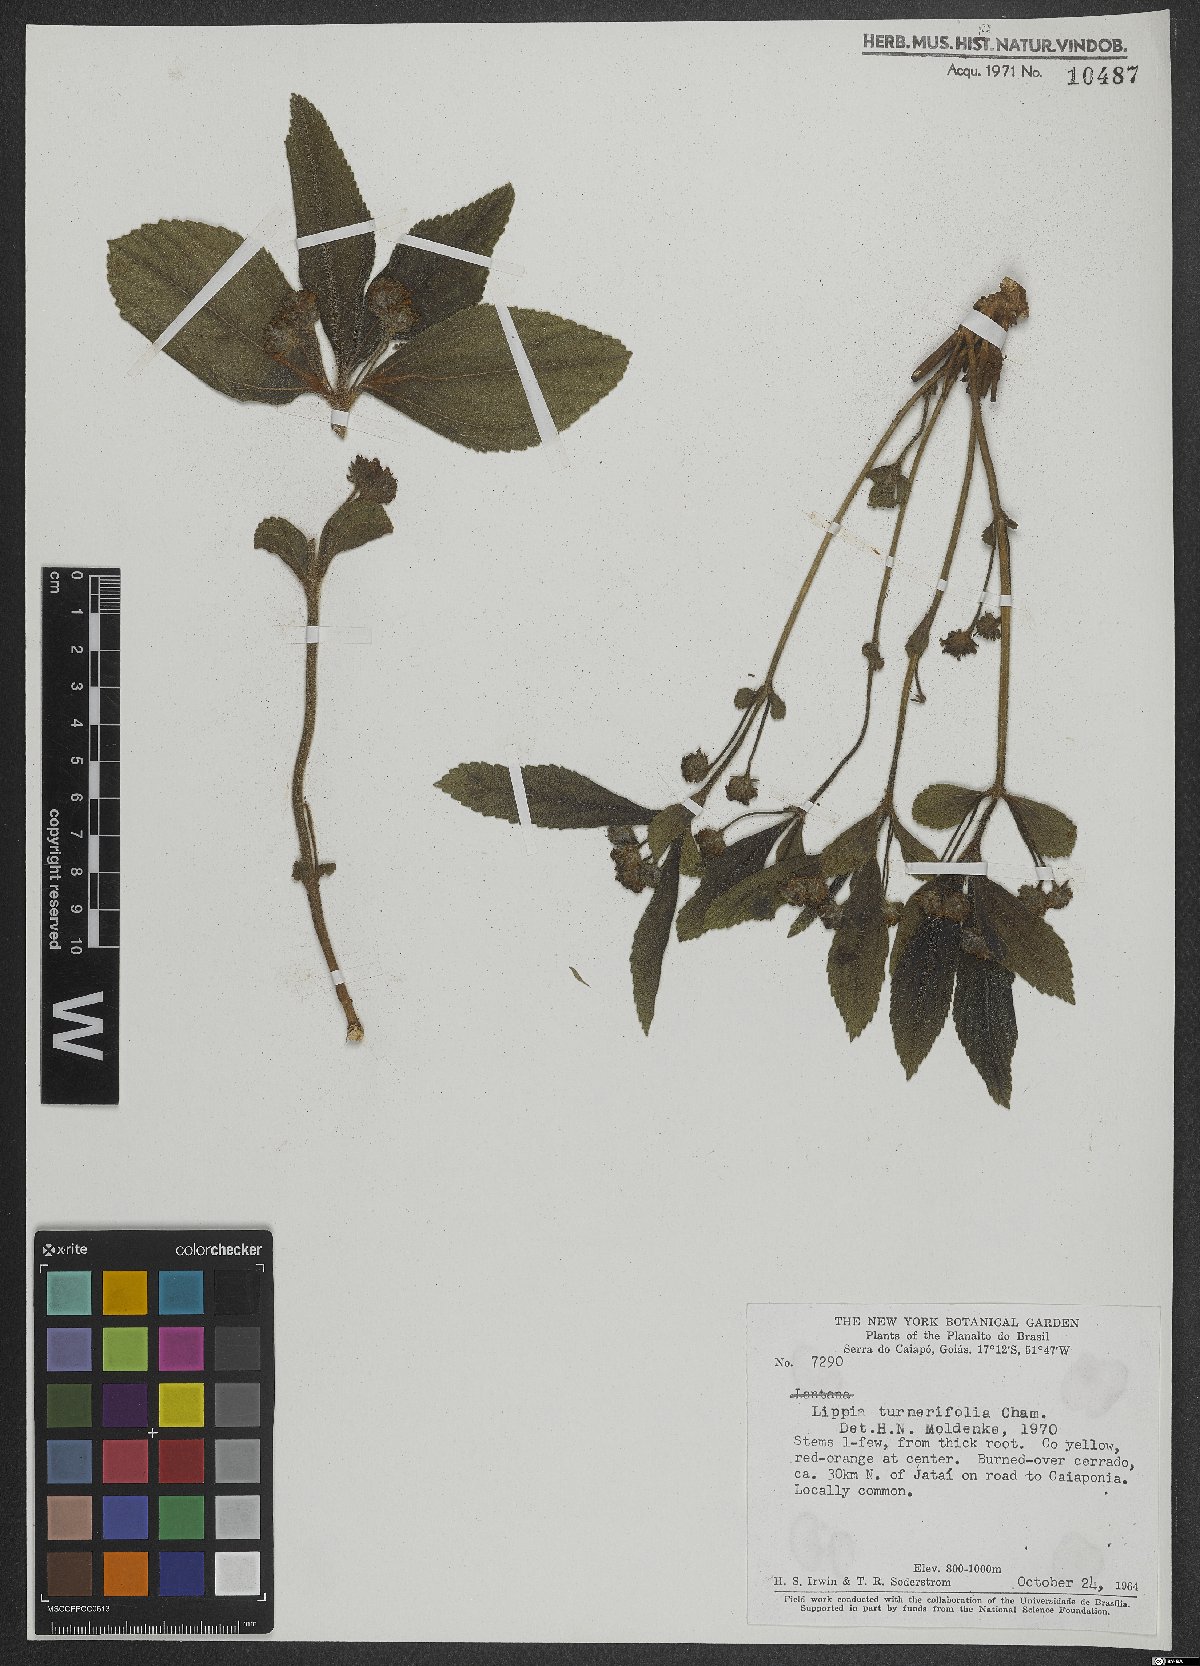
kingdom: Plantae
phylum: Tracheophyta
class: Magnoliopsida
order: Lamiales
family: Verbenaceae
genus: Lippia
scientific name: Lippia turnerifolia
